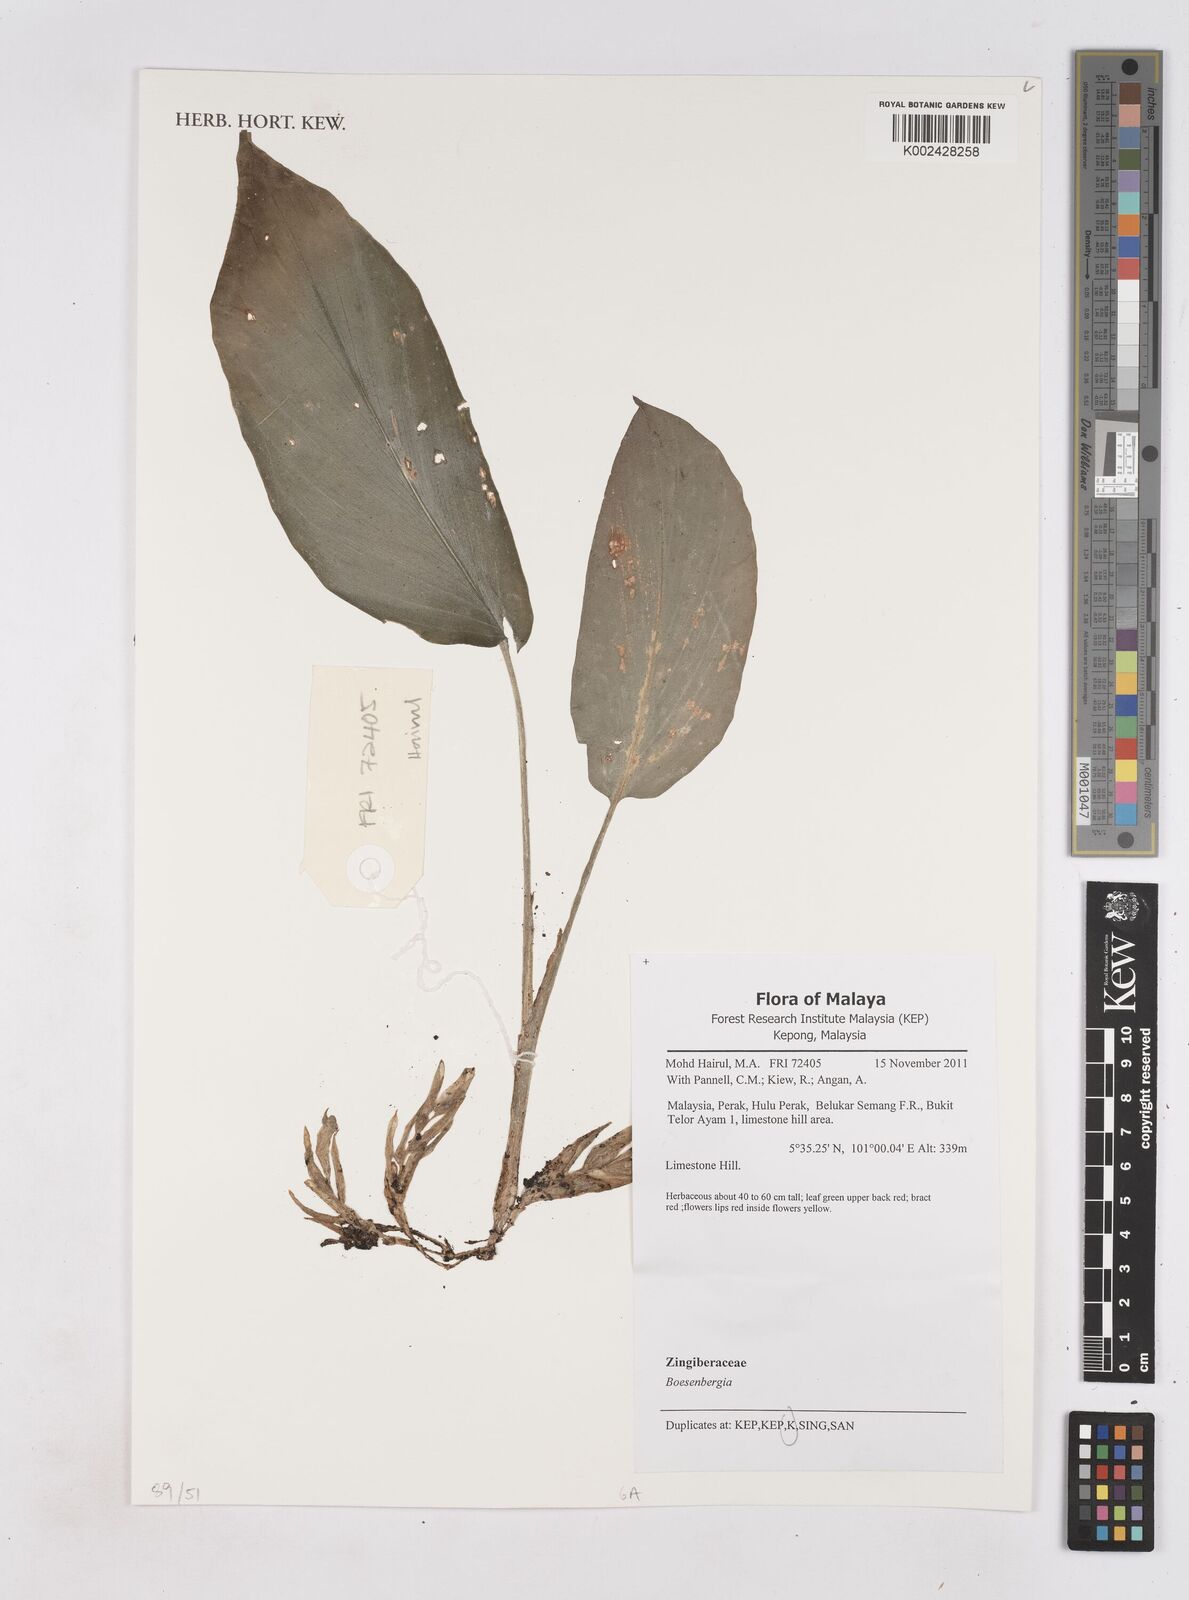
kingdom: Plantae
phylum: Tracheophyta
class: Liliopsida
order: Zingiberales
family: Zingiberaceae
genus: Boesenbergia
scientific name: Boesenbergia
